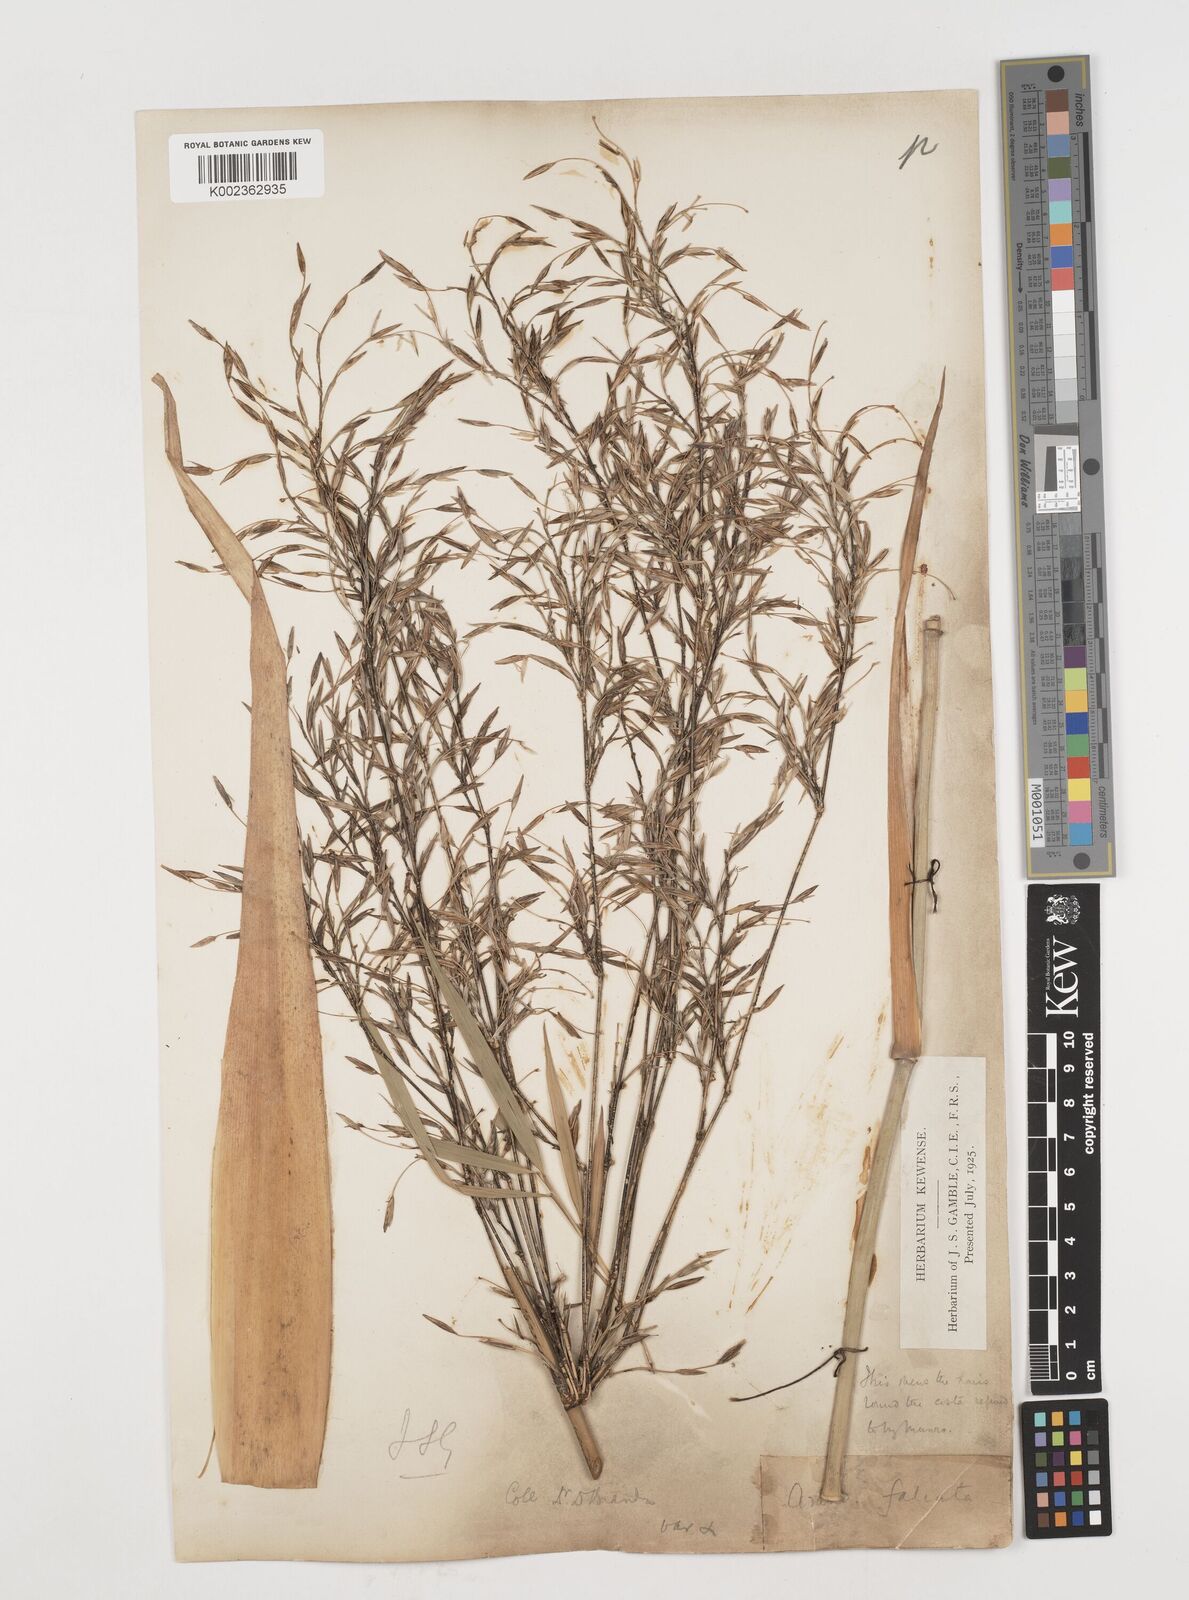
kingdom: Plantae
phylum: Tracheophyta
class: Liliopsida
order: Poales
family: Poaceae
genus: Drepanostachyum
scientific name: Drepanostachyum falcatum
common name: Himalayan bamboo
